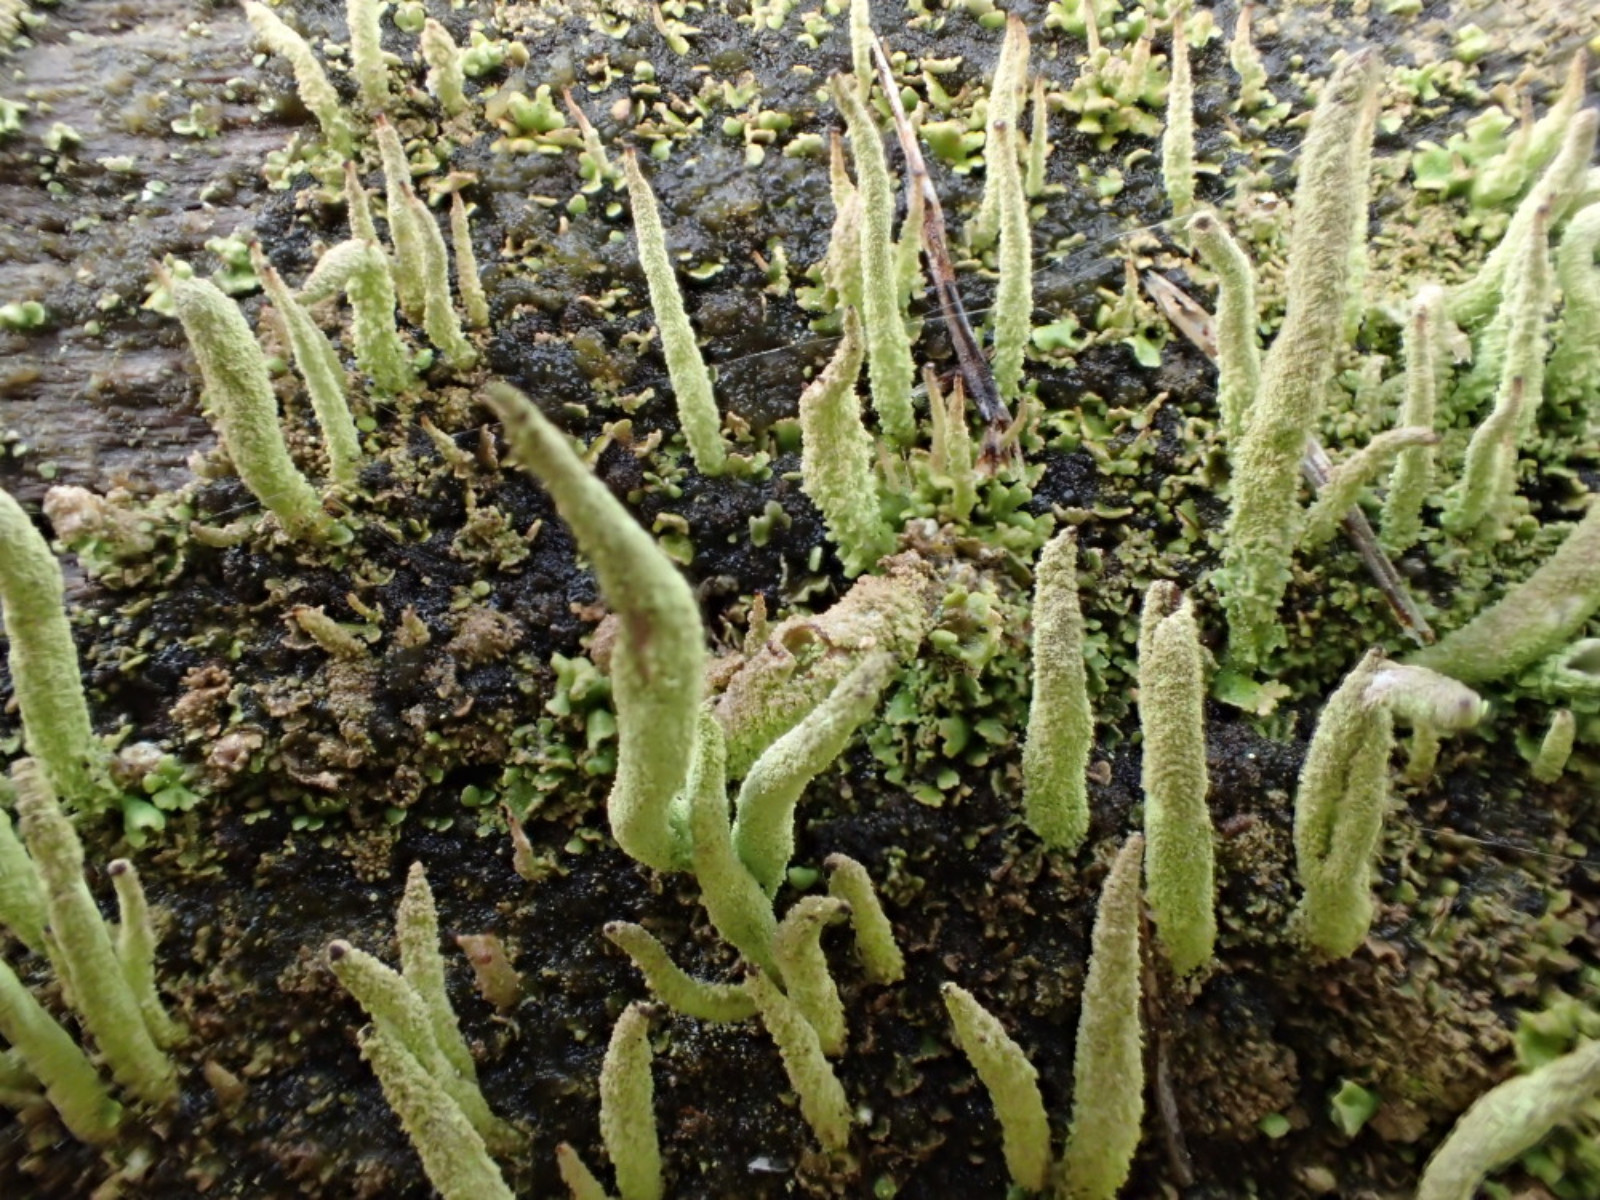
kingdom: Fungi
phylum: Ascomycota
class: Lecanoromycetes
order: Lecanorales
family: Cladoniaceae
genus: Cladonia
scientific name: Cladonia coniocraea
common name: træfods-bægerlav
